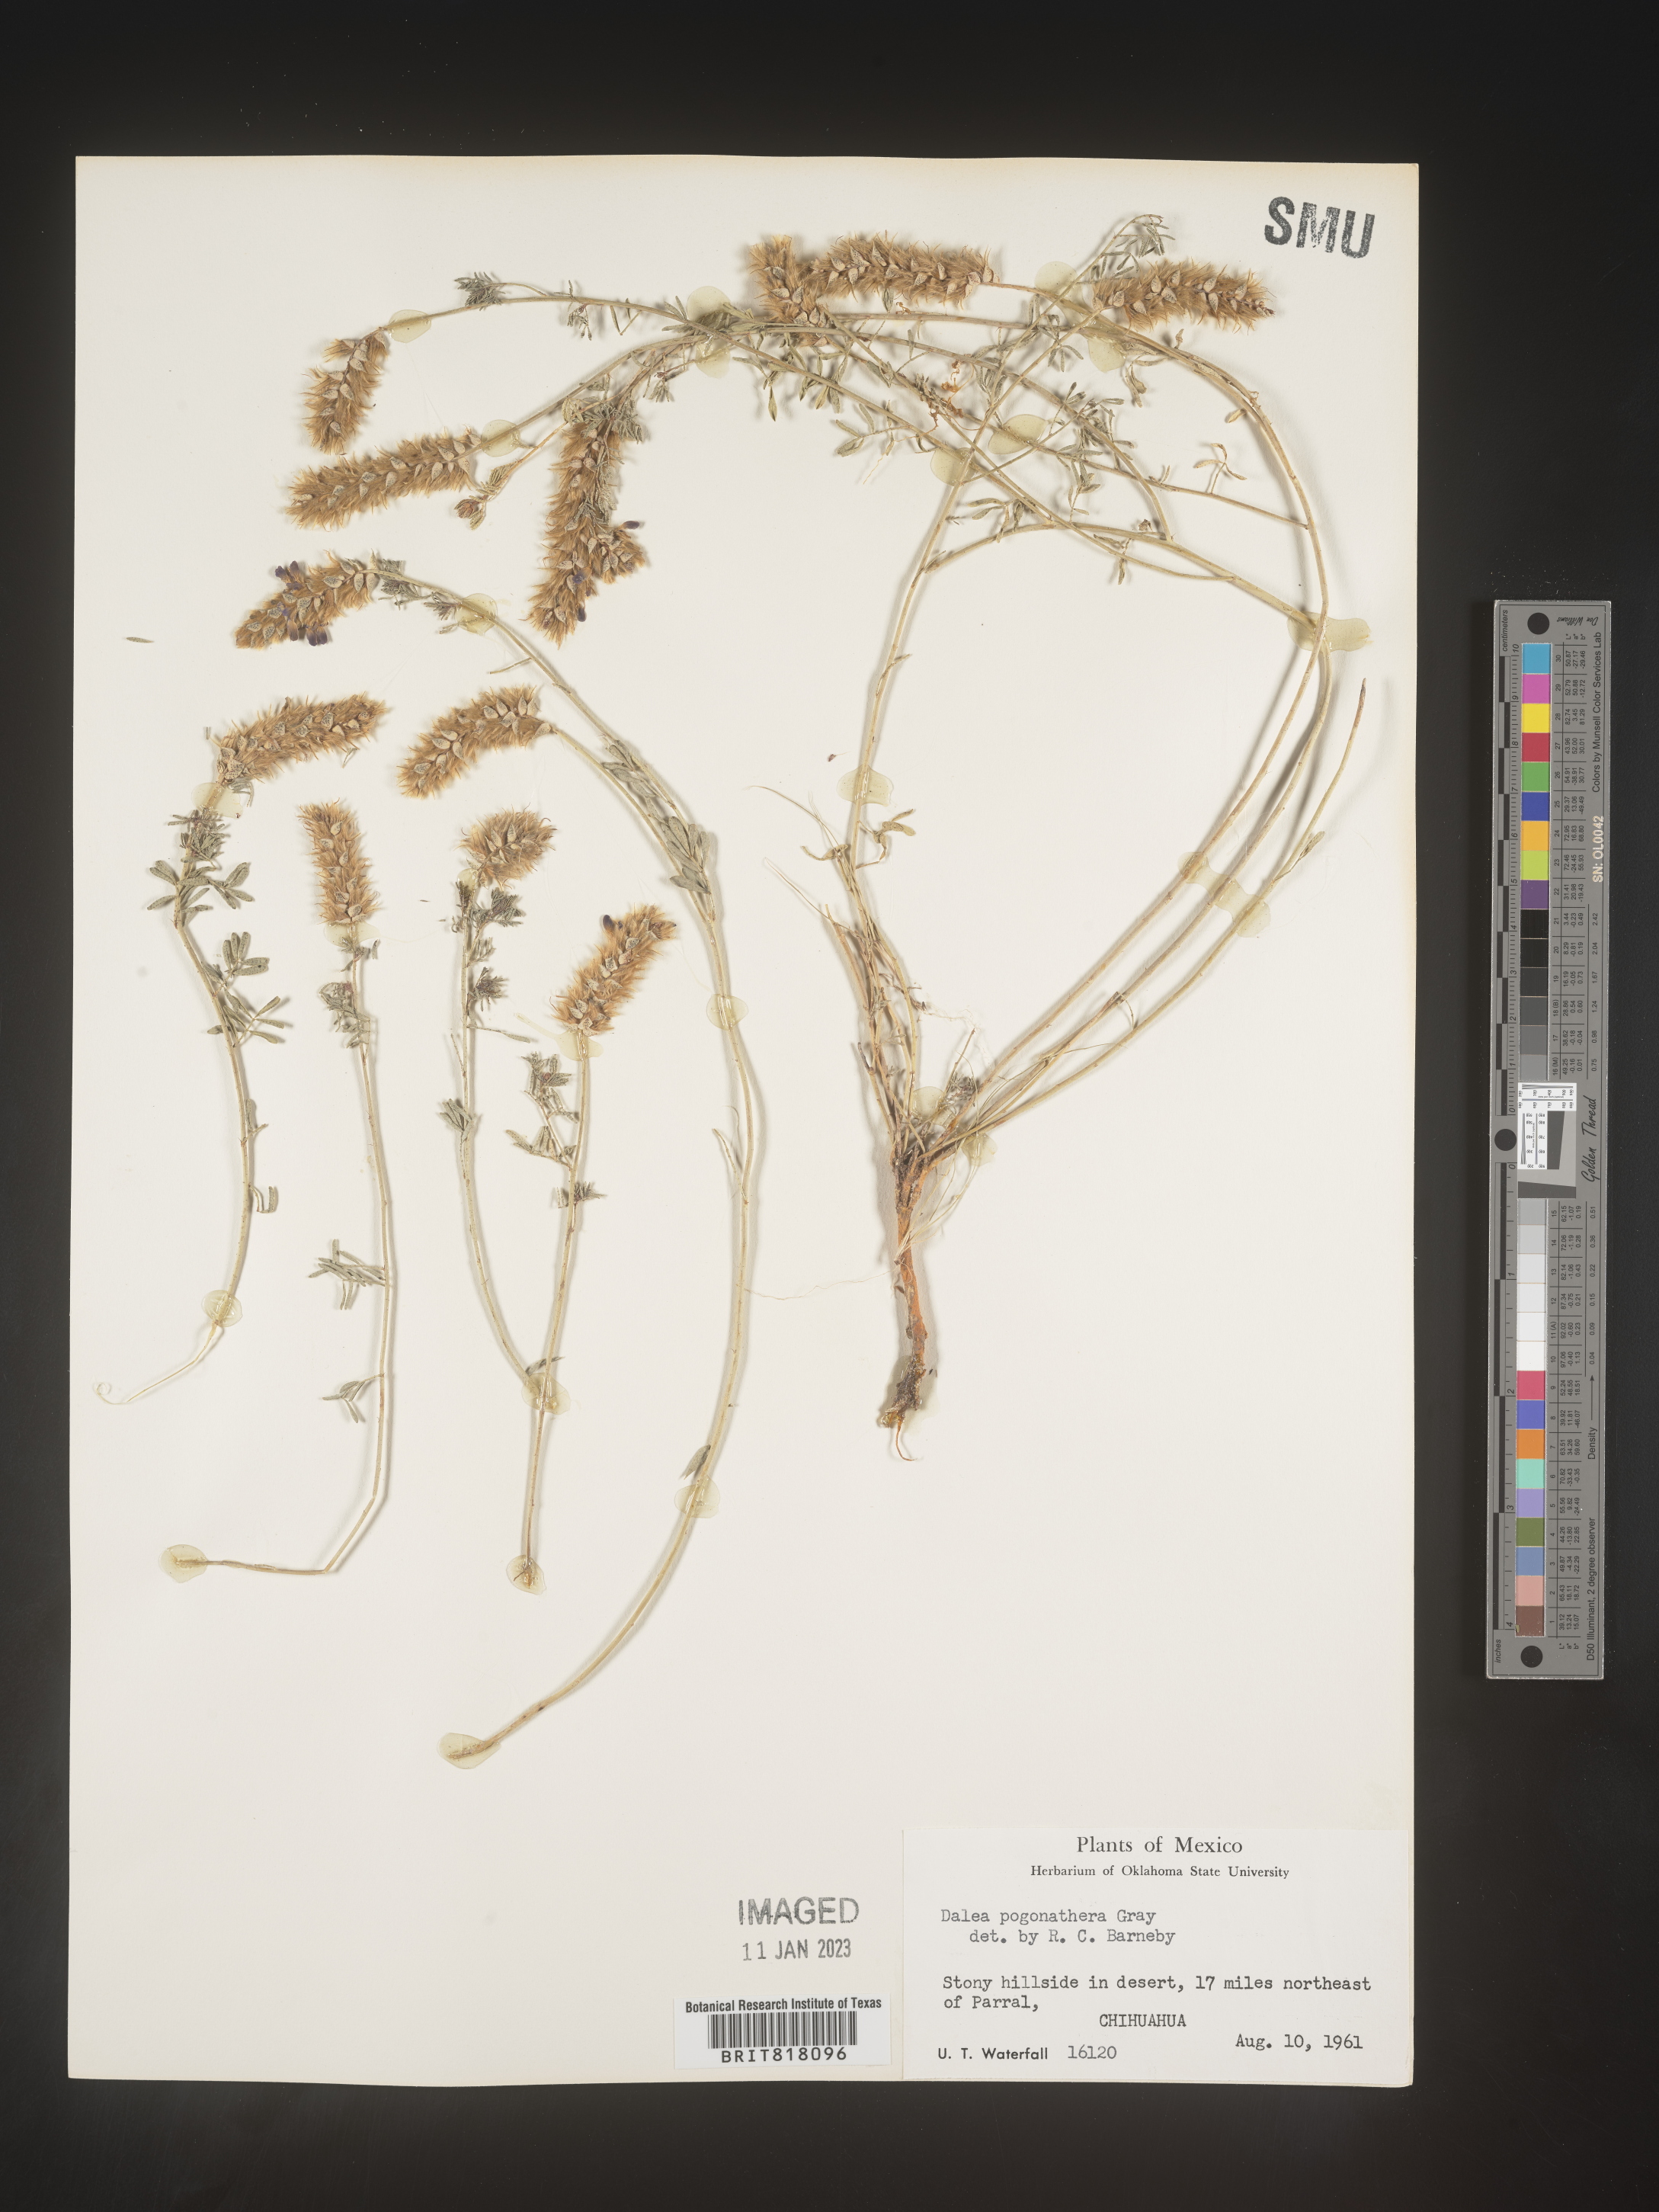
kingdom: Plantae
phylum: Tracheophyta
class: Magnoliopsida
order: Fabales
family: Fabaceae
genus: Dalea
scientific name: Dalea
